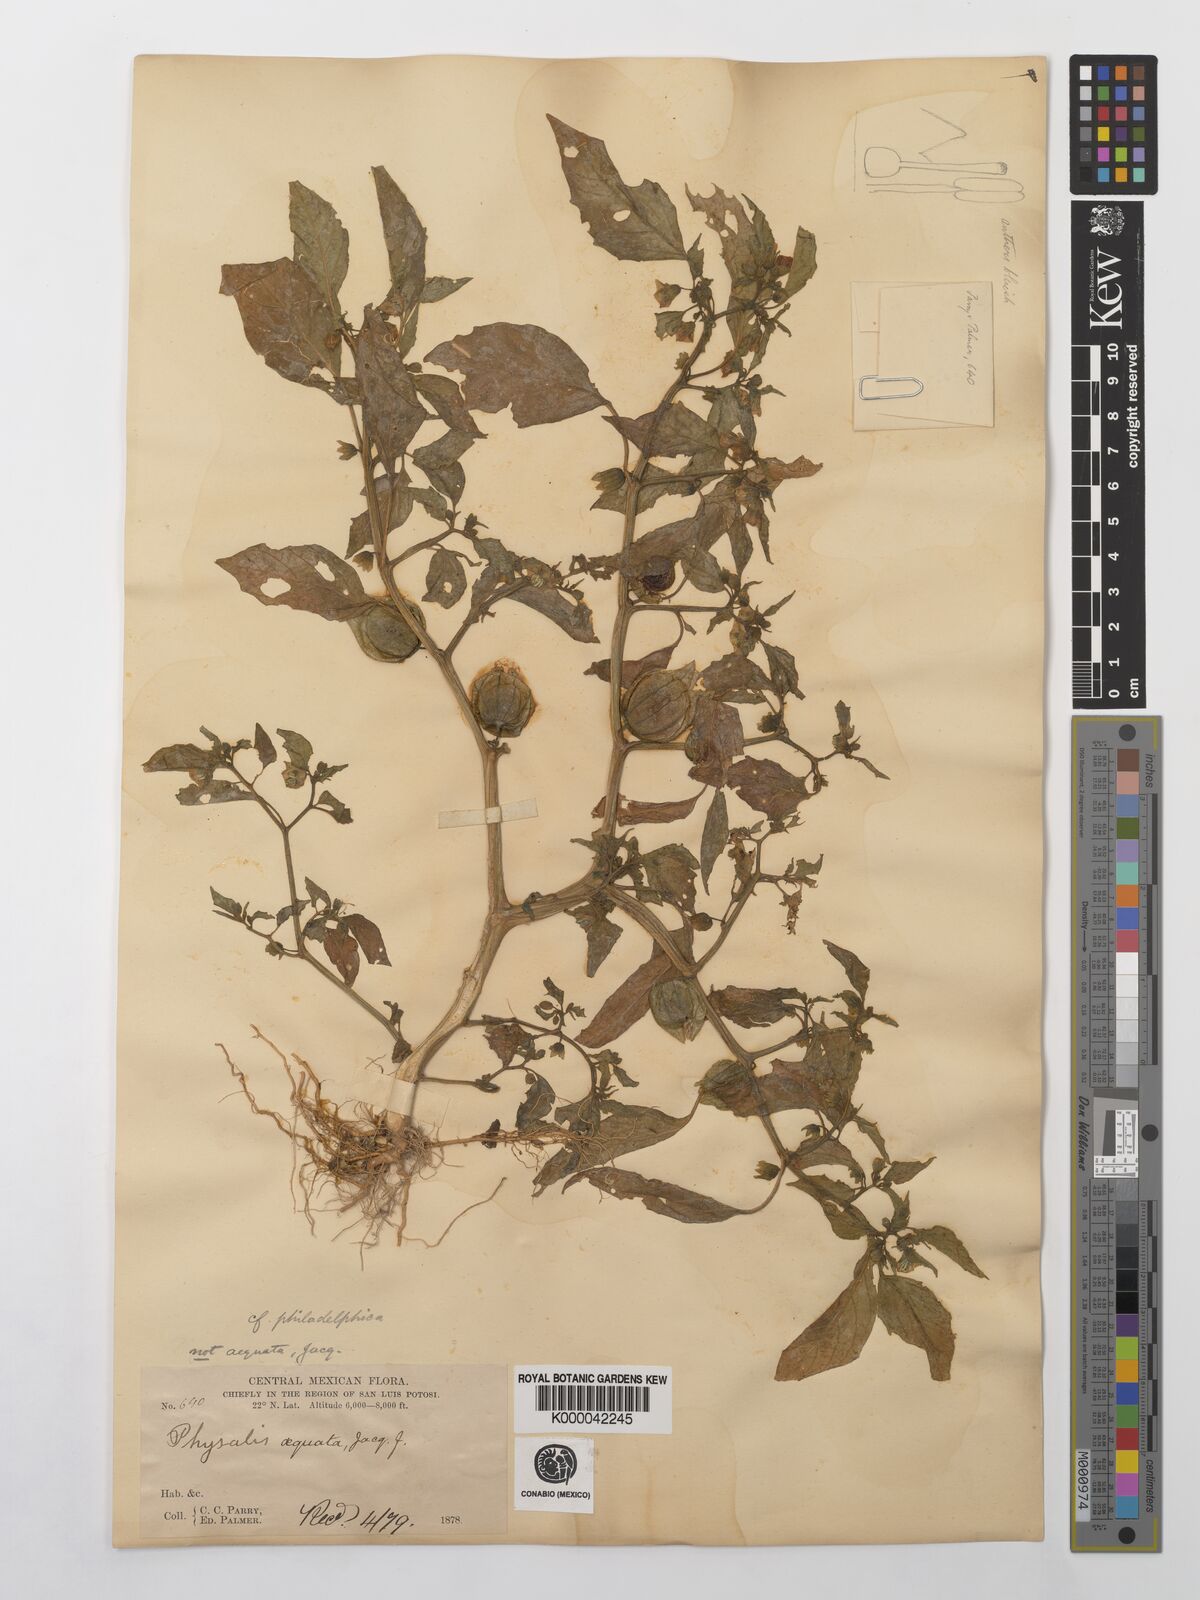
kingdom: Plantae
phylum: Tracheophyta
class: Magnoliopsida
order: Solanales
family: Solanaceae
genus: Physalis
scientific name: Physalis philadelphica
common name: Husk-tomato
